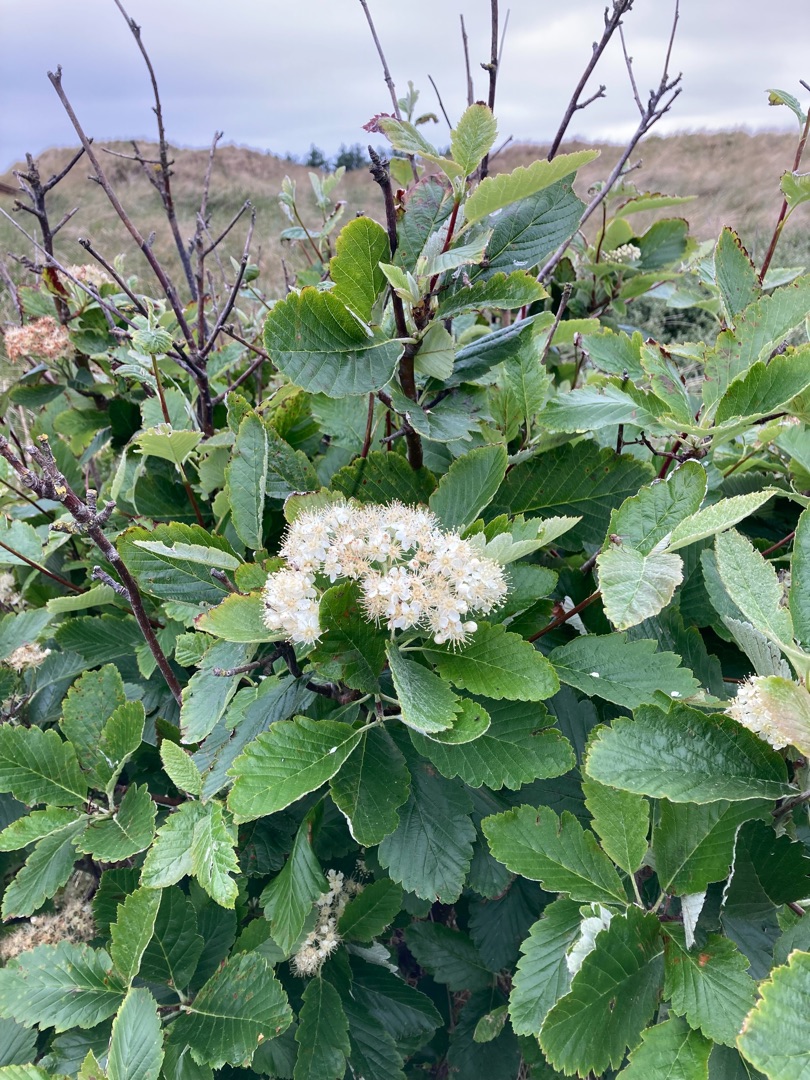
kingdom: Plantae
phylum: Tracheophyta
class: Magnoliopsida
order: Rosales
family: Rosaceae
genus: Scandosorbus
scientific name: Scandosorbus intermedia
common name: Selje-røn
